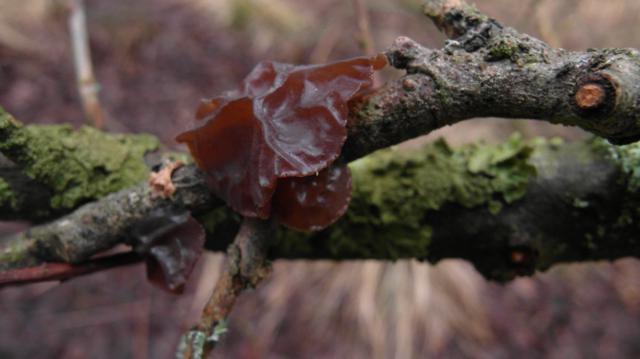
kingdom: Fungi
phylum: Basidiomycota
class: Agaricomycetes
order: Auriculariales
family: Auriculariaceae
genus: Exidia
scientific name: Exidia recisa
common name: pile-bævretop
